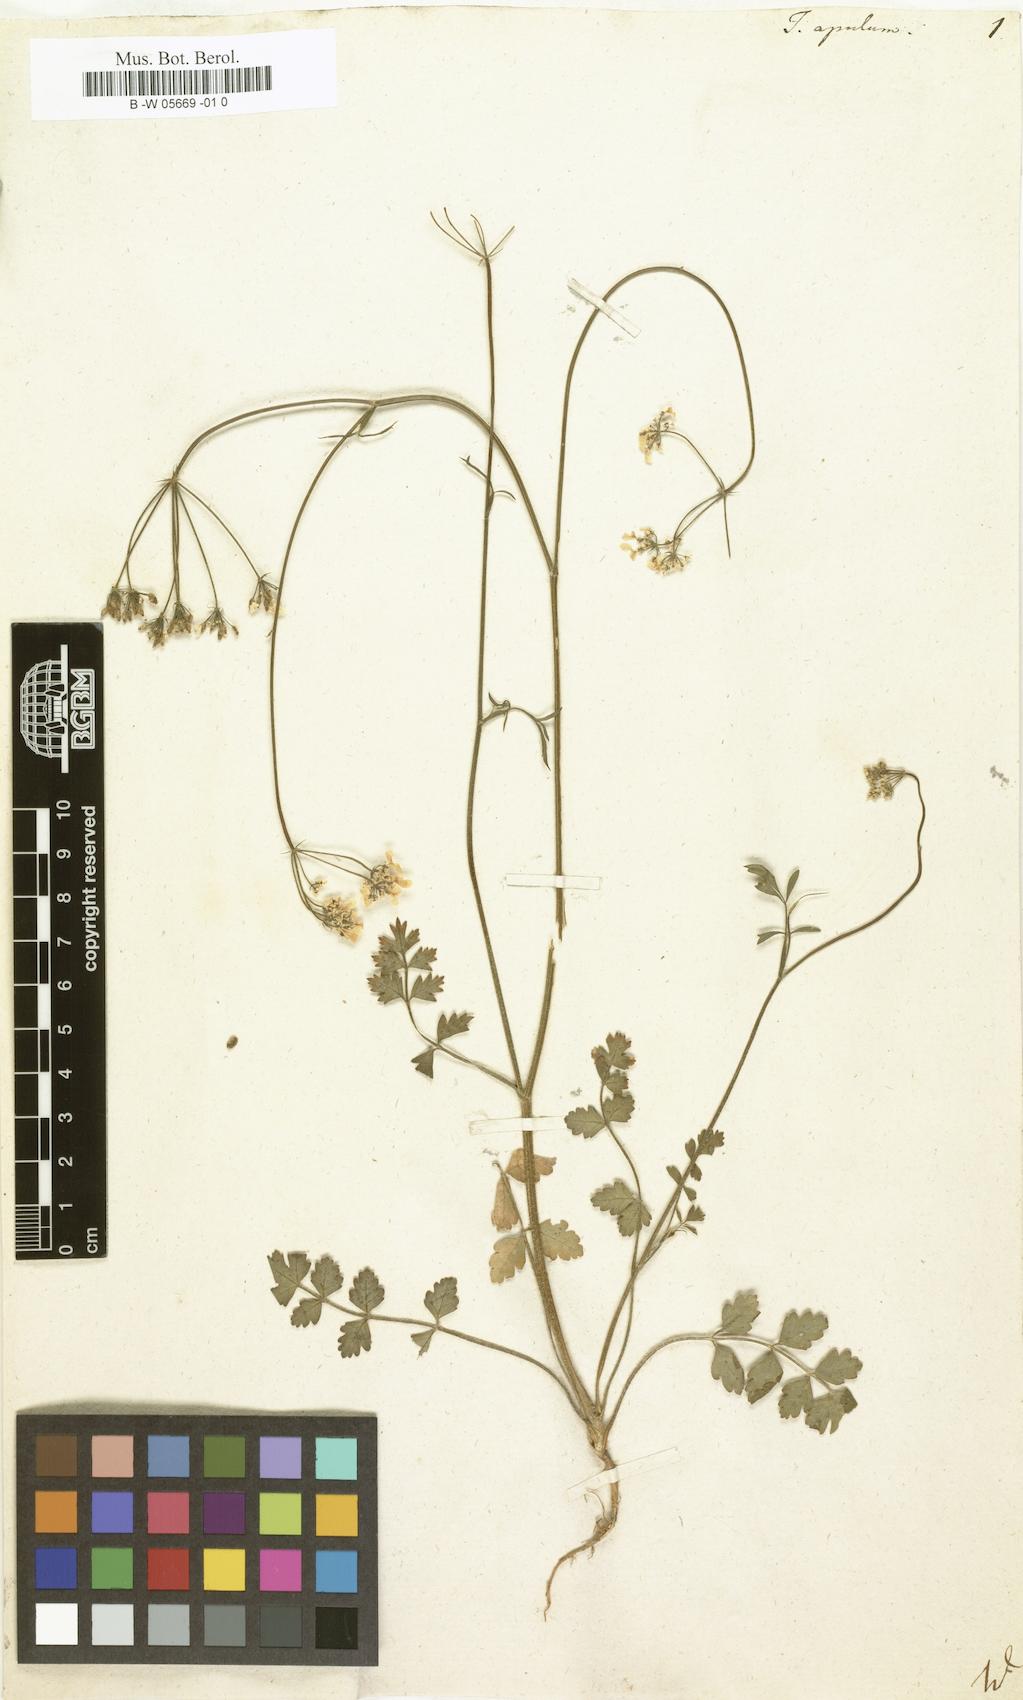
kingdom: Plantae
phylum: Tracheophyta
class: Magnoliopsida
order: Apiales
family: Apiaceae
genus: Tordylium
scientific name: Tordylium apulum
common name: Mediterranean hartwort
